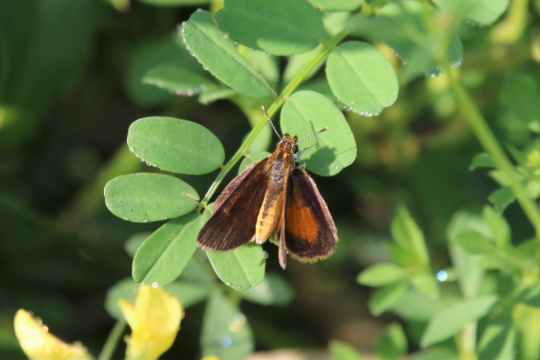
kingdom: Animalia
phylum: Arthropoda
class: Insecta
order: Lepidoptera
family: Hesperiidae
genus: Ancyloxypha
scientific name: Ancyloxypha numitor
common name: Least Skipper
